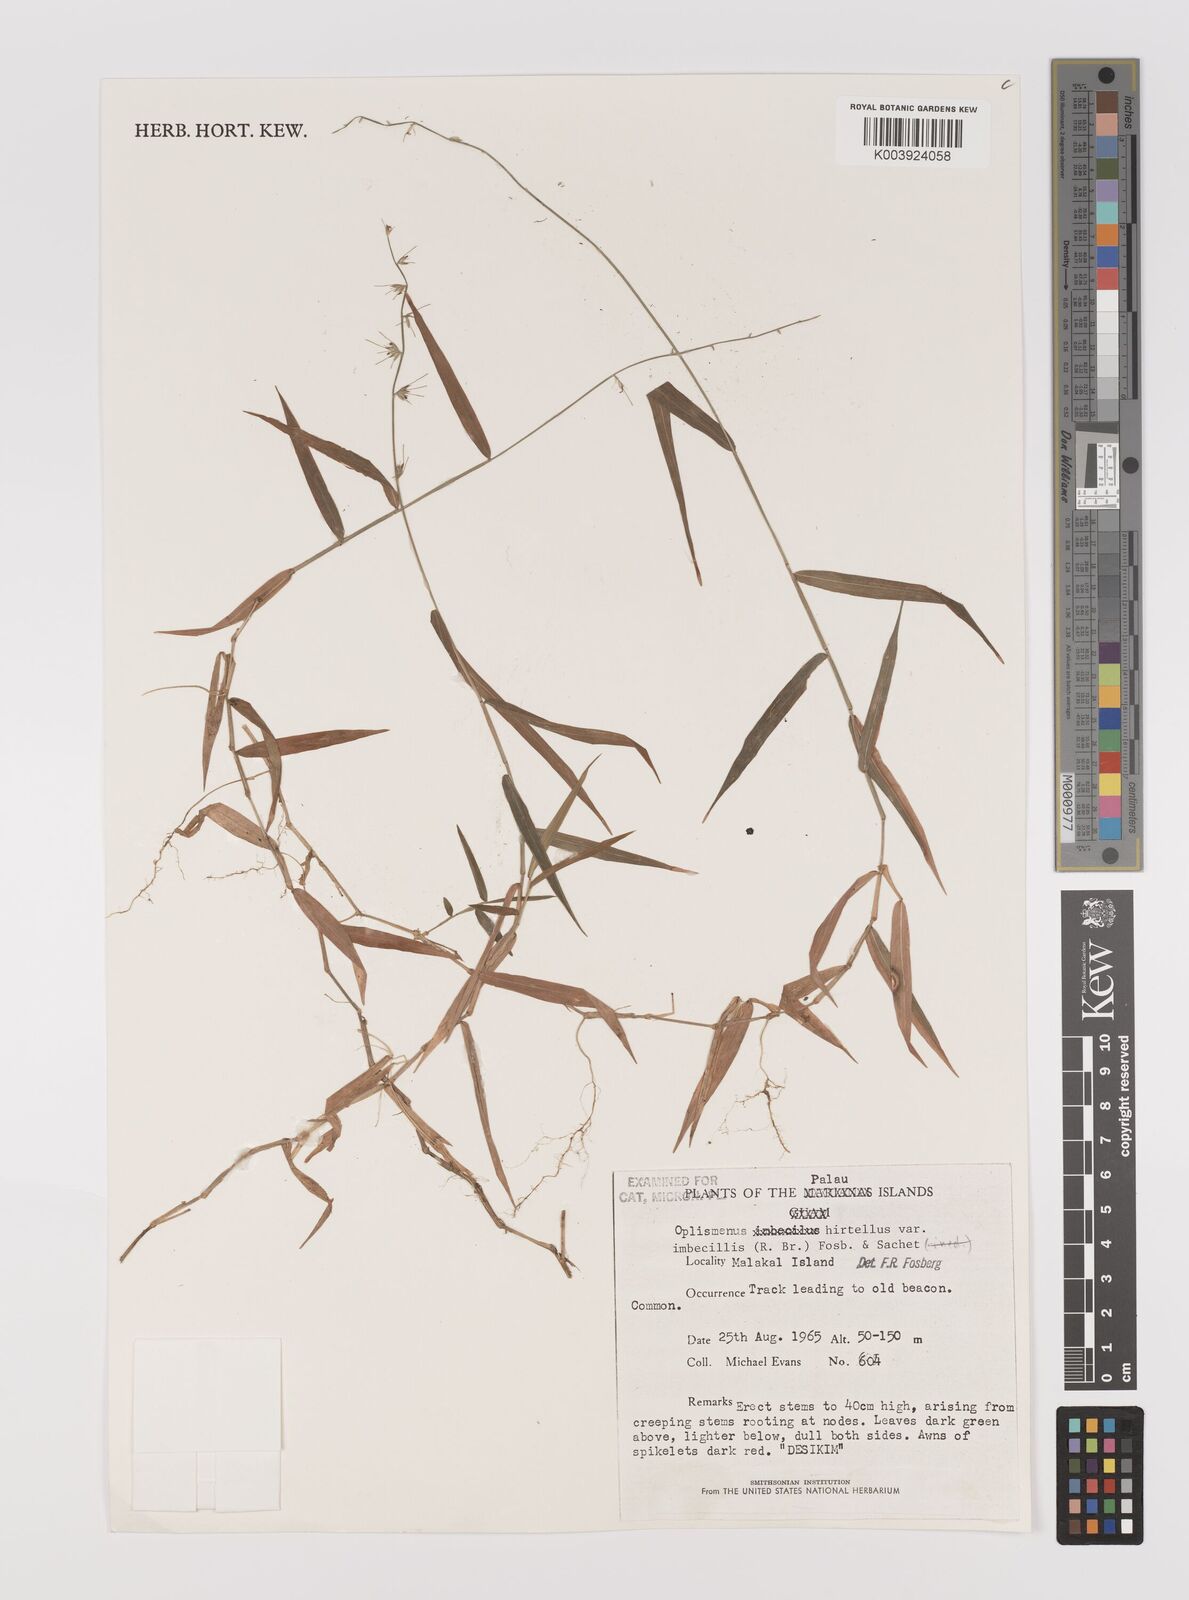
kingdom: Plantae
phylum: Tracheophyta
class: Liliopsida
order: Poales
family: Poaceae
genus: Oplismenus
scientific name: Oplismenus hirtellus
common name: Basketgrass
